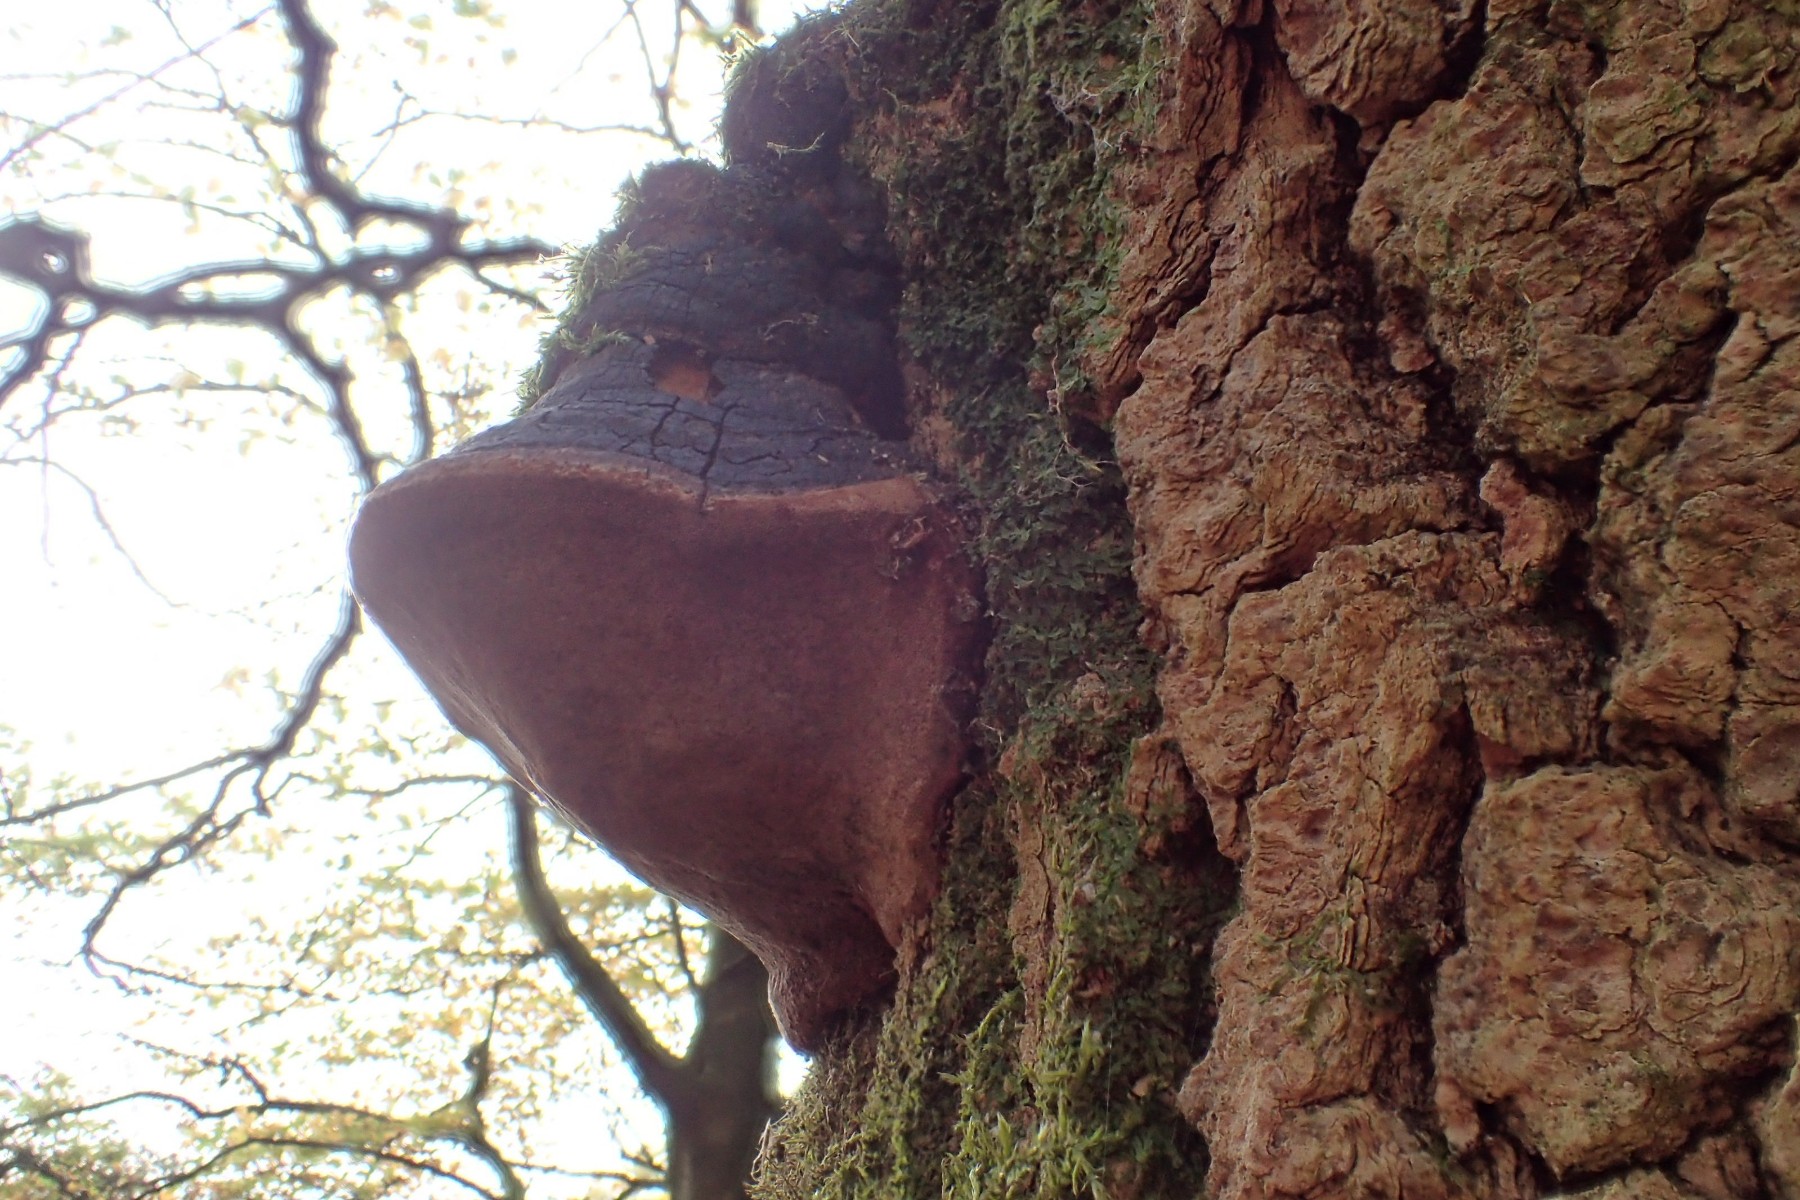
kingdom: Fungi
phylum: Basidiomycota
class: Agaricomycetes
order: Hymenochaetales
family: Hymenochaetaceae
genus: Phellinus
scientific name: Phellinus tremulae
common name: aspe-ildporesvamp
